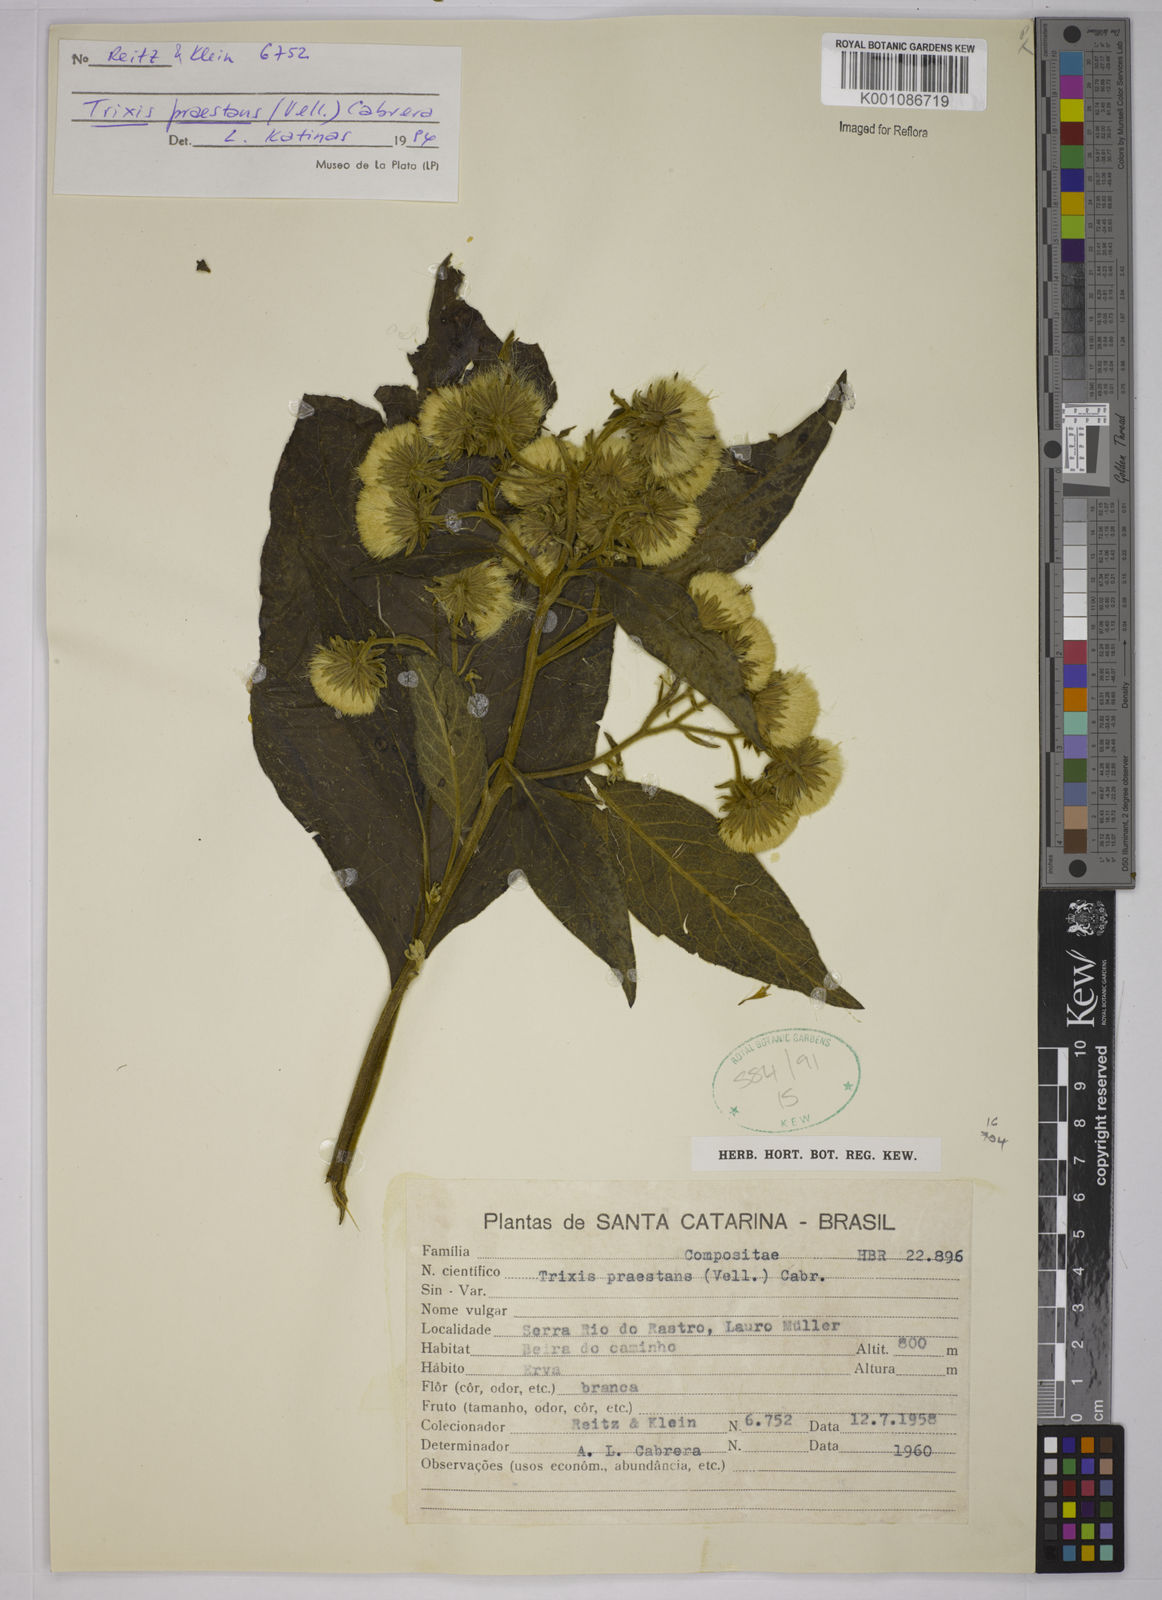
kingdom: Plantae
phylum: Tracheophyta
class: Magnoliopsida
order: Asterales
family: Asteraceae
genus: Trixis
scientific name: Trixis praestans
